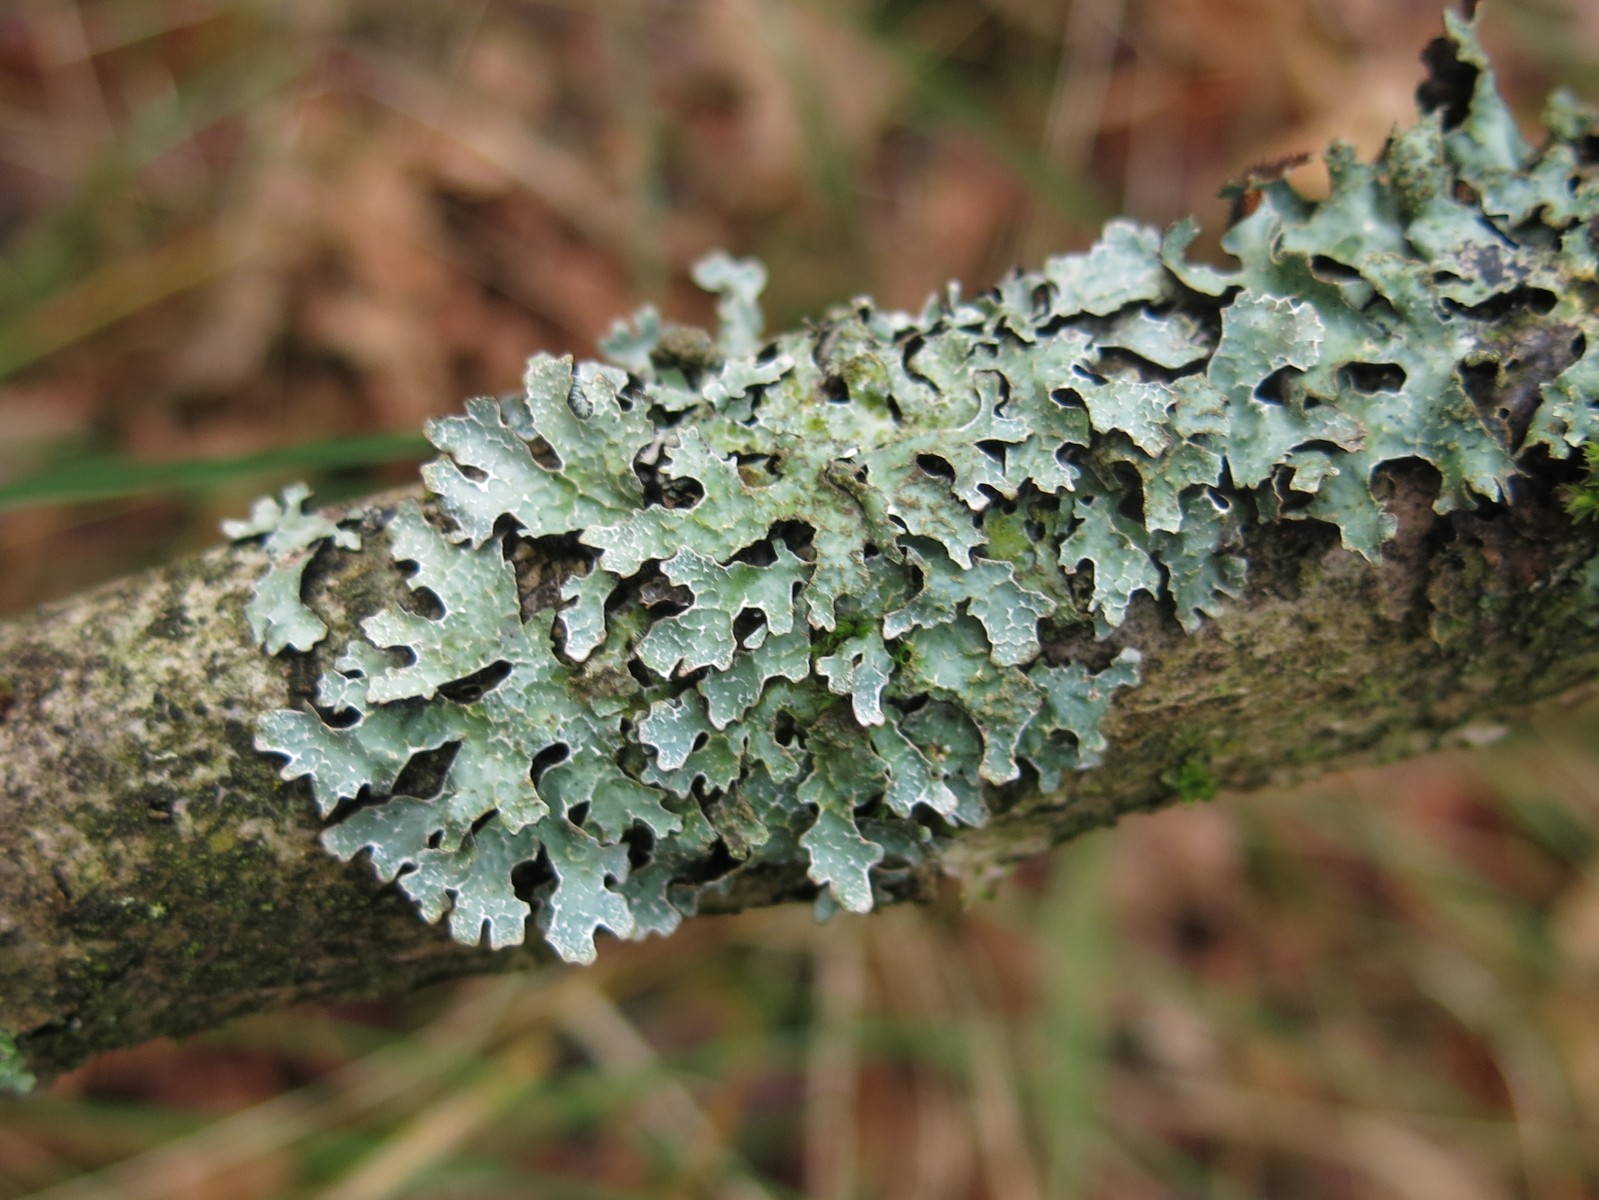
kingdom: Fungi
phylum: Ascomycota
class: Lecanoromycetes
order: Lecanorales
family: Parmeliaceae
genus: Parmelia
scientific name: Parmelia sulcata
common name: rynket skållav
